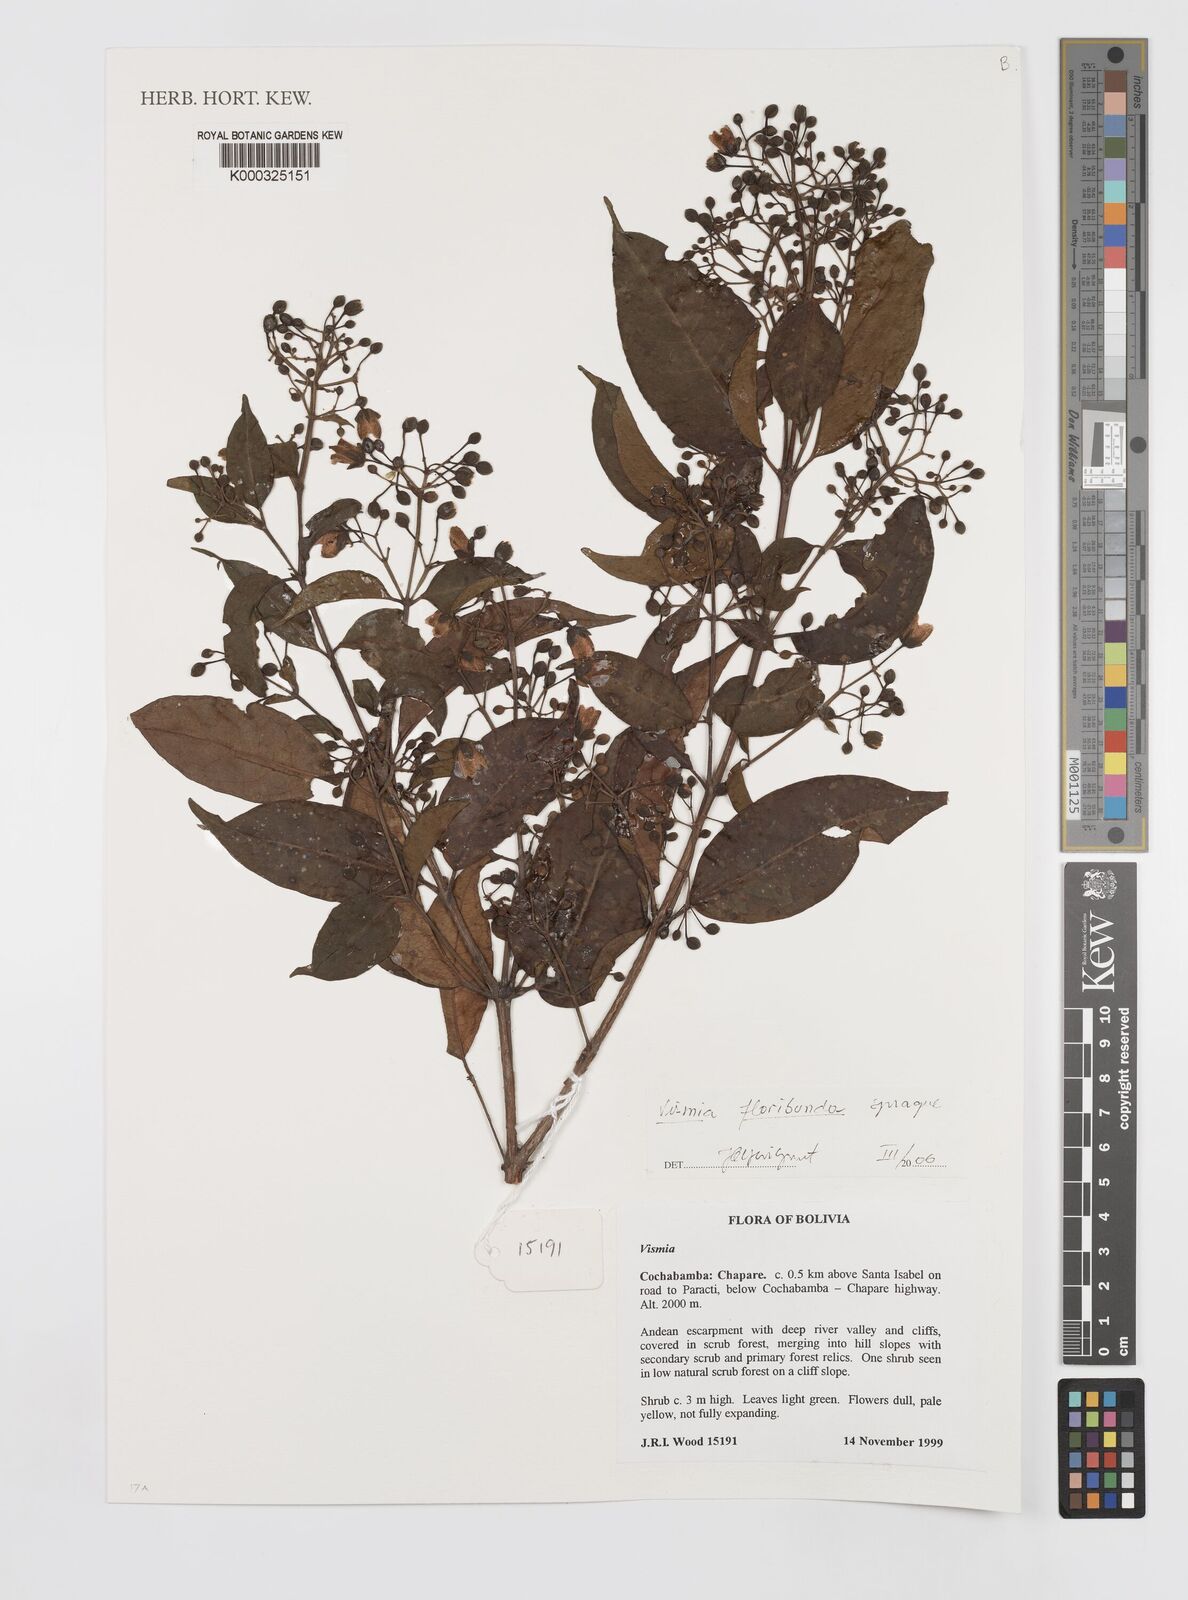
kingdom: Plantae
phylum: Tracheophyta
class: Magnoliopsida
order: Malpighiales
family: Hypericaceae
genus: Vismia
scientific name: Vismia floribunda
